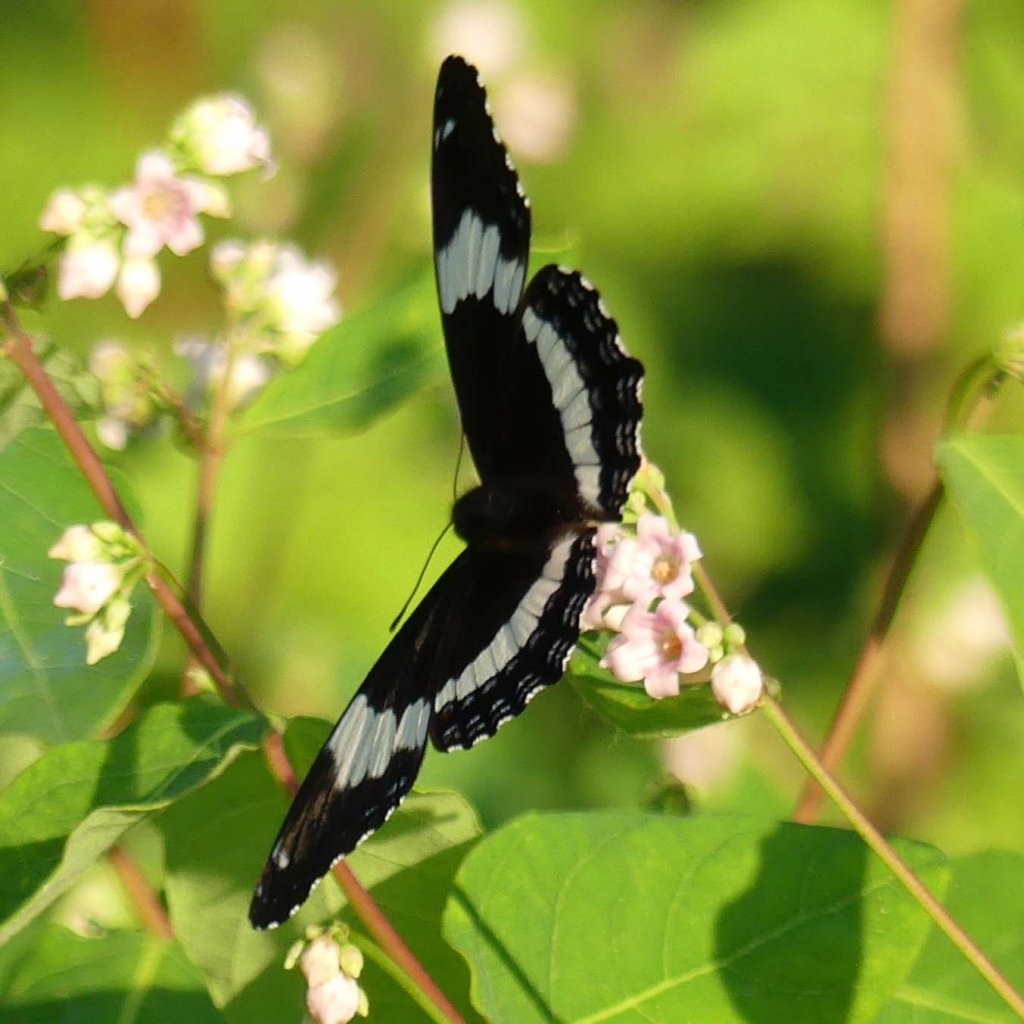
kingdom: Animalia
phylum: Arthropoda
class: Insecta
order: Lepidoptera
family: Nymphalidae
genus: Limenitis
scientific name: Limenitis arthemis
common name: Red-spotted Admiral
